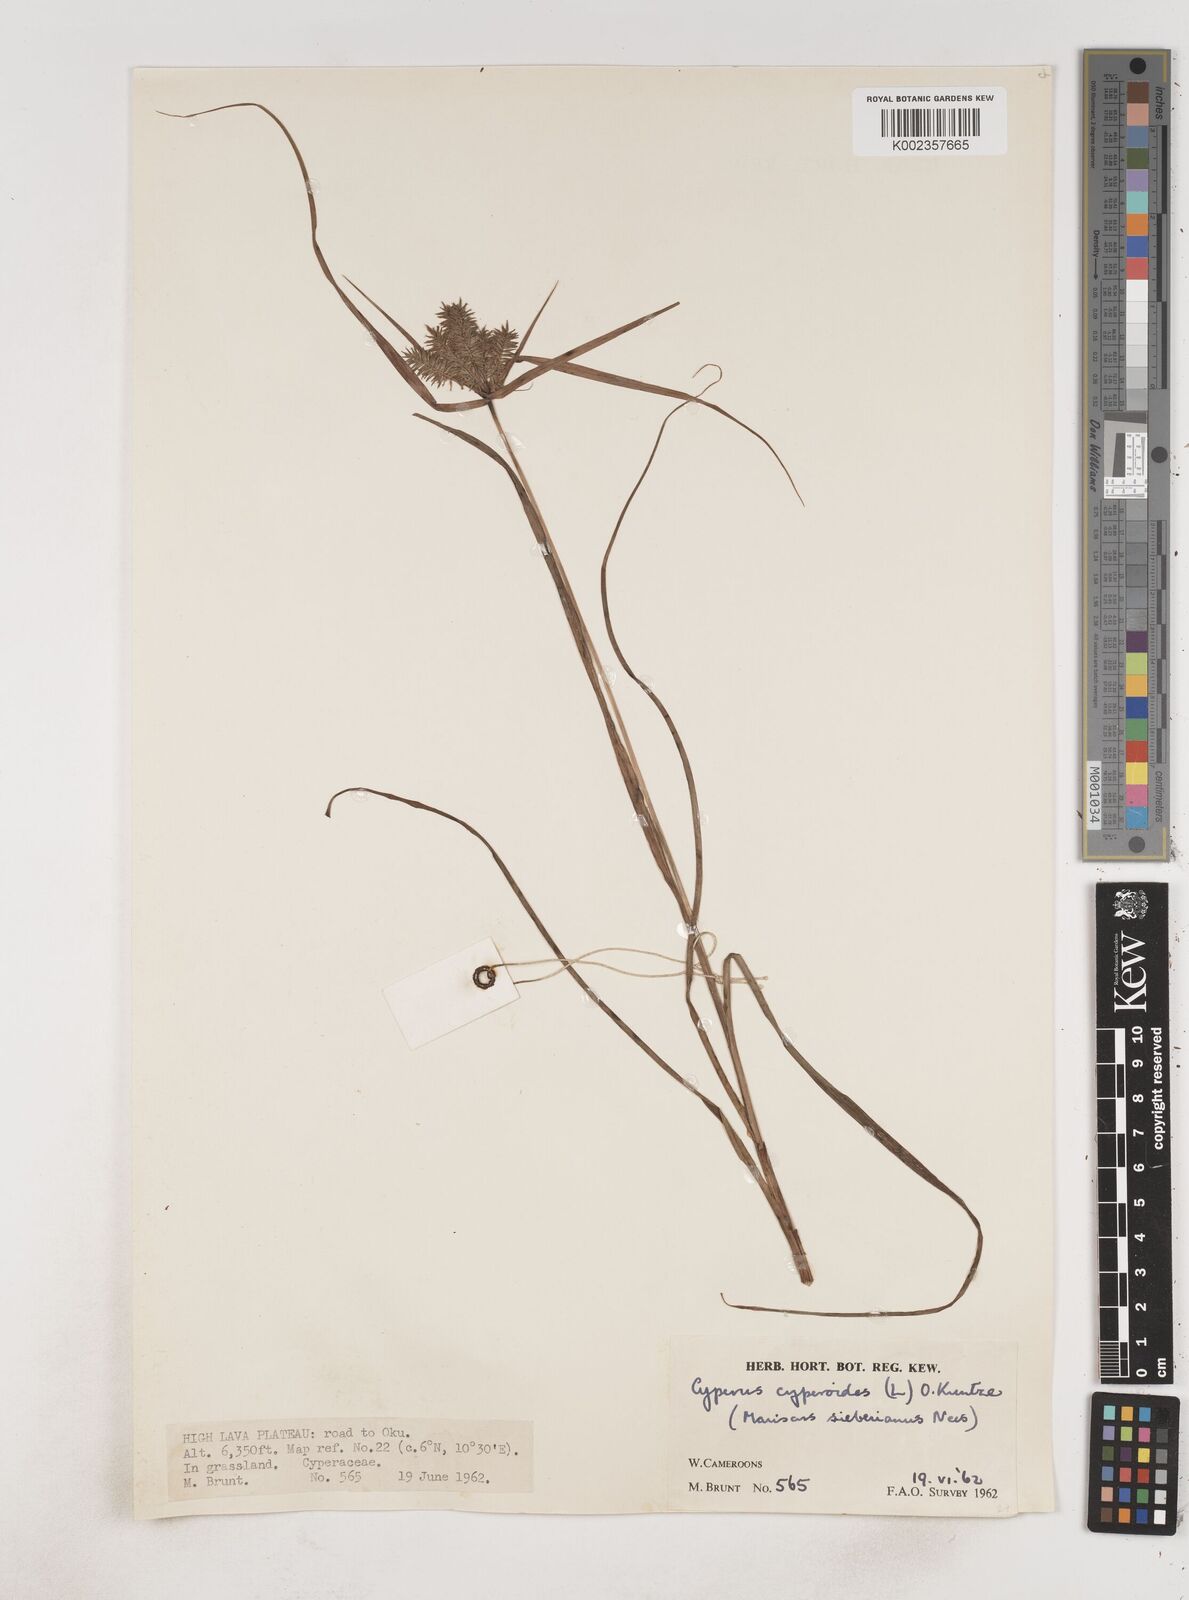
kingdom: Plantae
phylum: Tracheophyta
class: Liliopsida
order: Poales
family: Cyperaceae
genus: Cyperus
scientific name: Cyperus cyperoides
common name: Pacific island flat sedge
